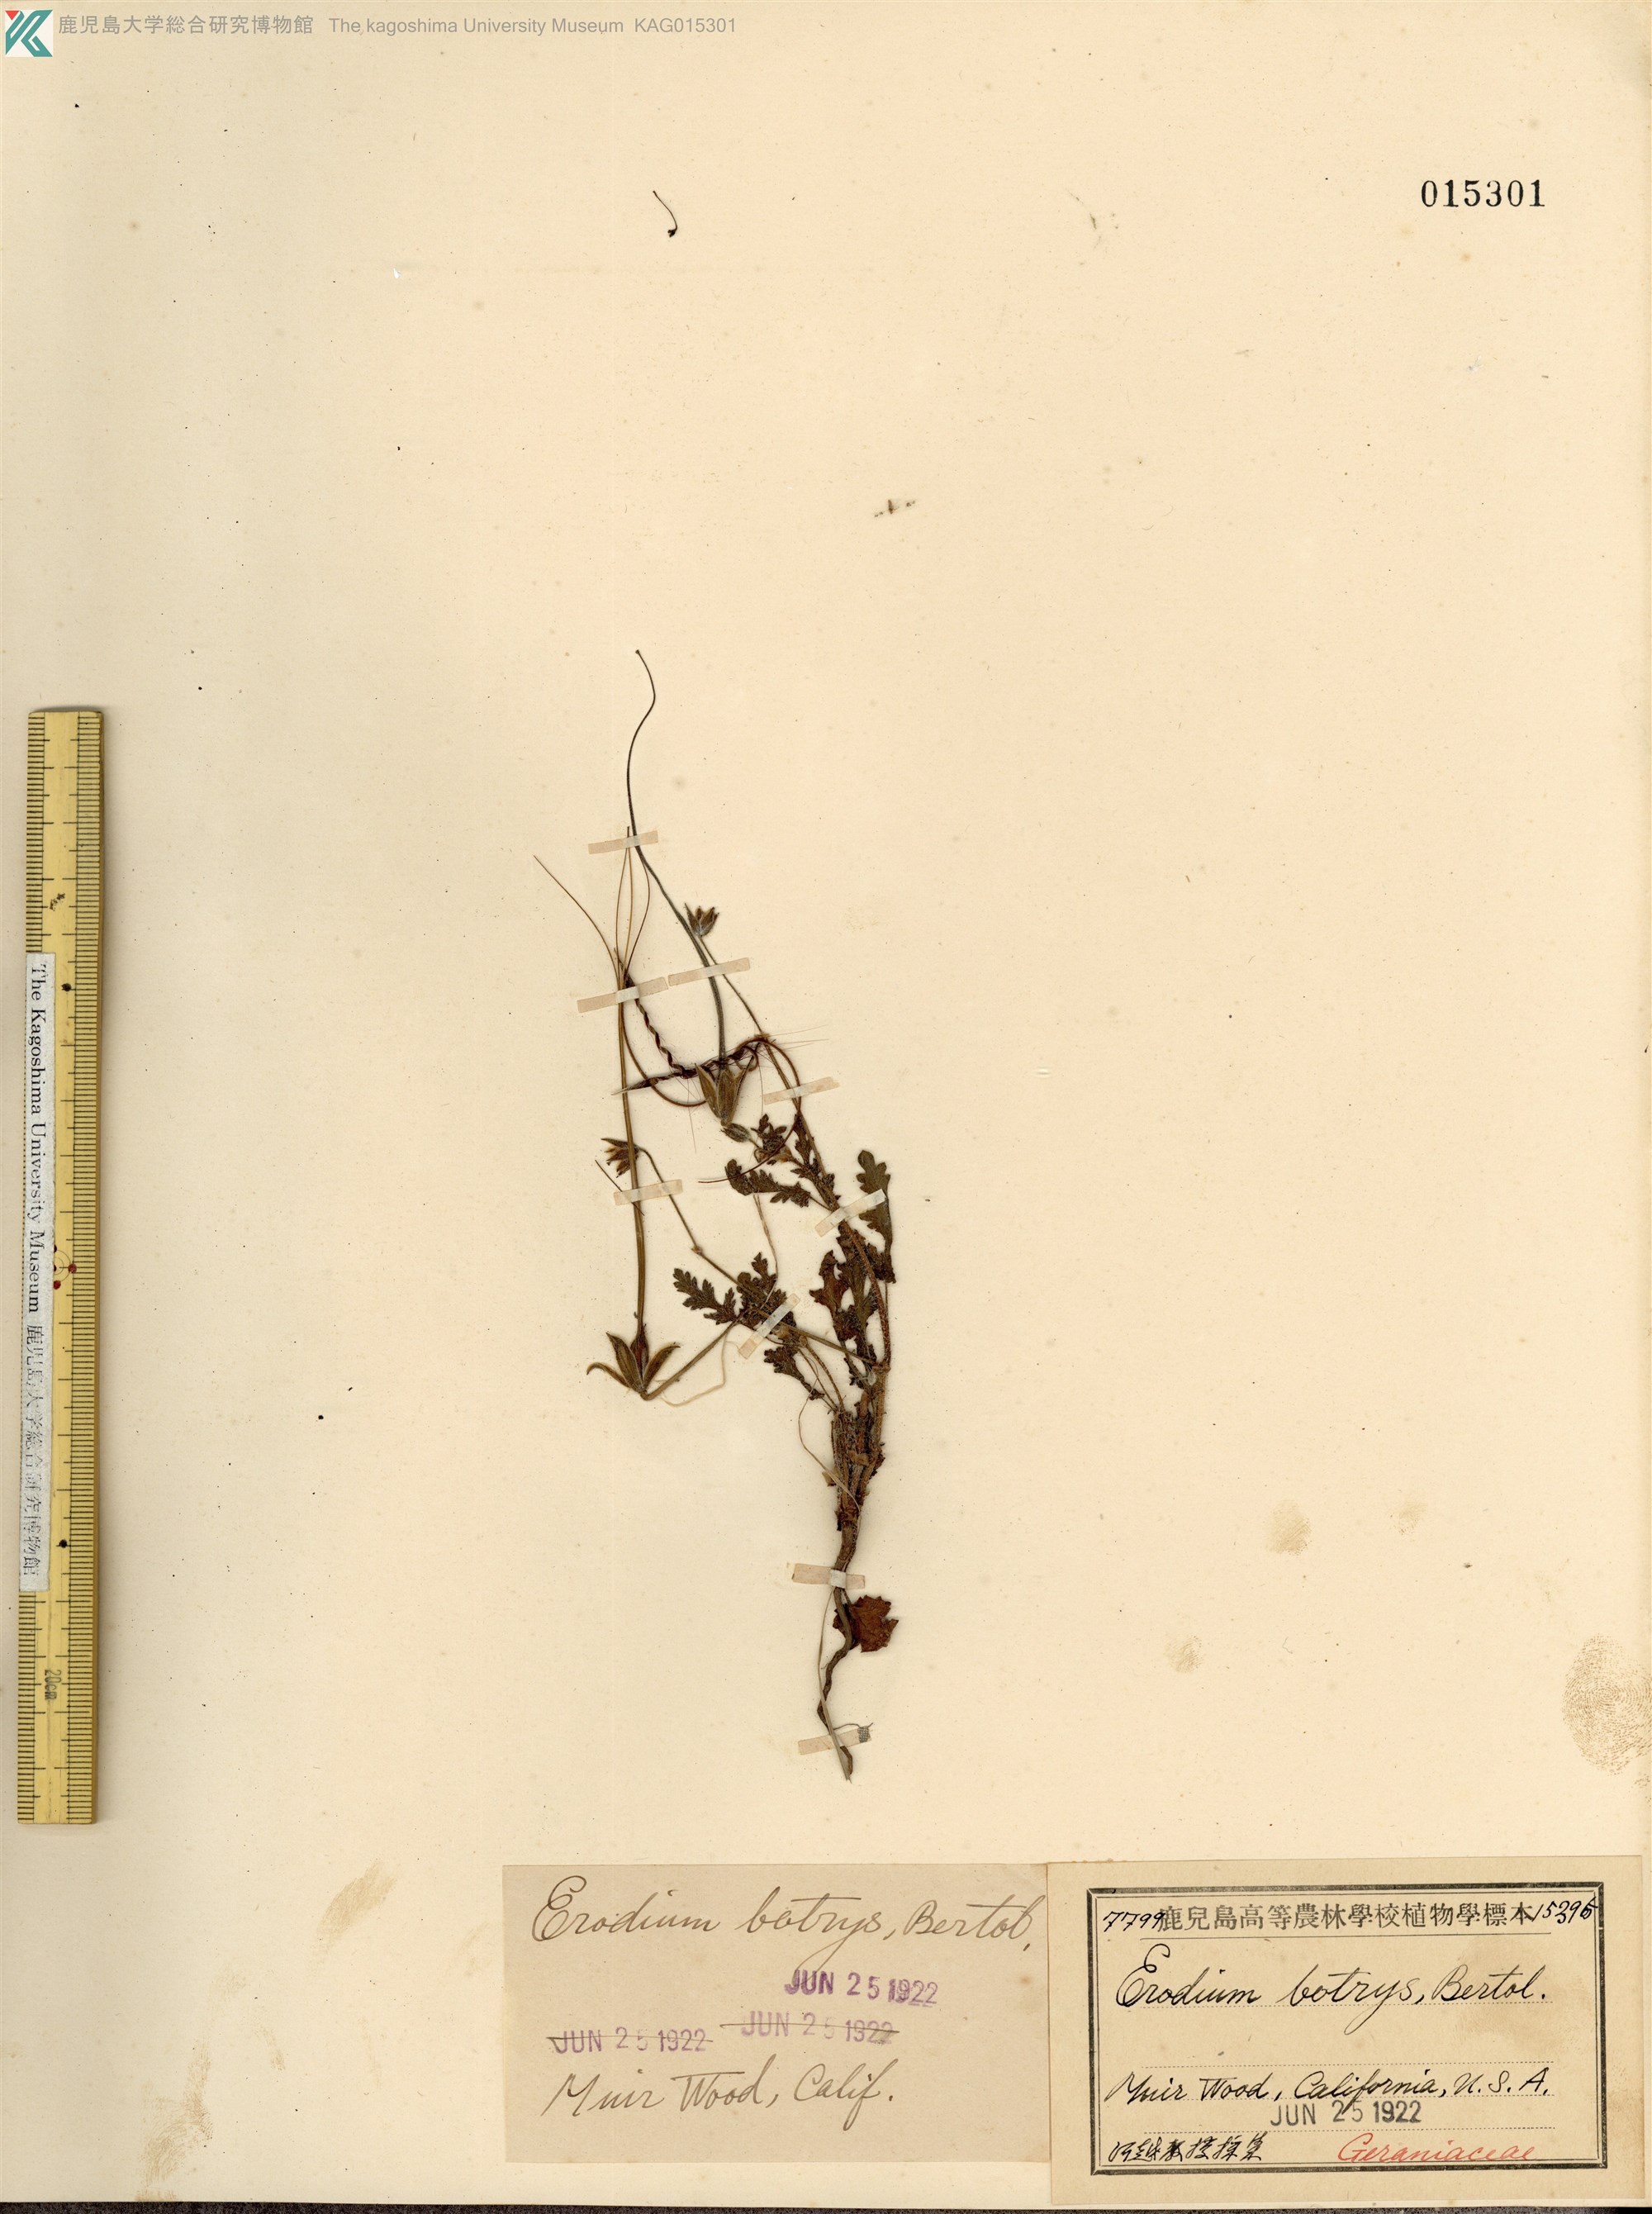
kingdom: Plantae
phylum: Tracheophyta
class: Magnoliopsida
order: Geraniales
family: Geraniaceae
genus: Erodium
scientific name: Erodium botrys
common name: Mediterranean stork's-bill
